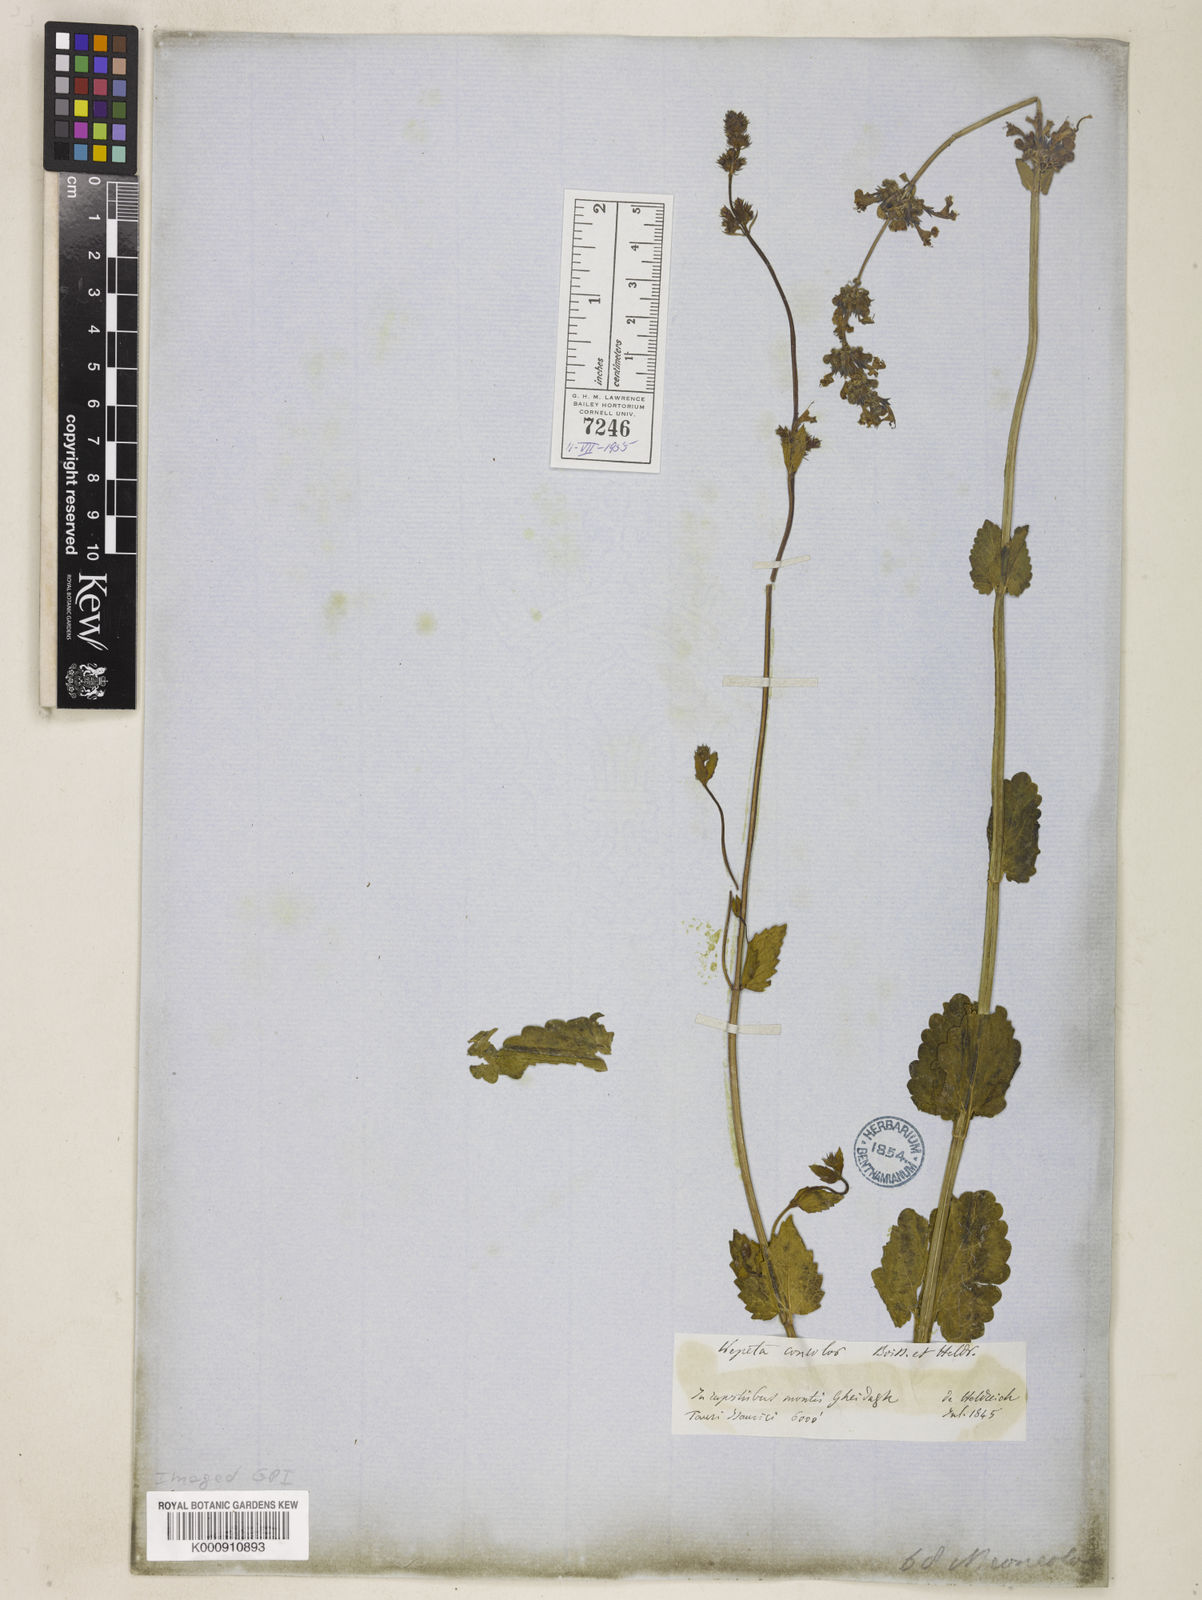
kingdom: Plantae
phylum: Tracheophyta
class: Magnoliopsida
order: Lamiales
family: Lamiaceae
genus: Nepeta
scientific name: Nepeta betonicifolia
